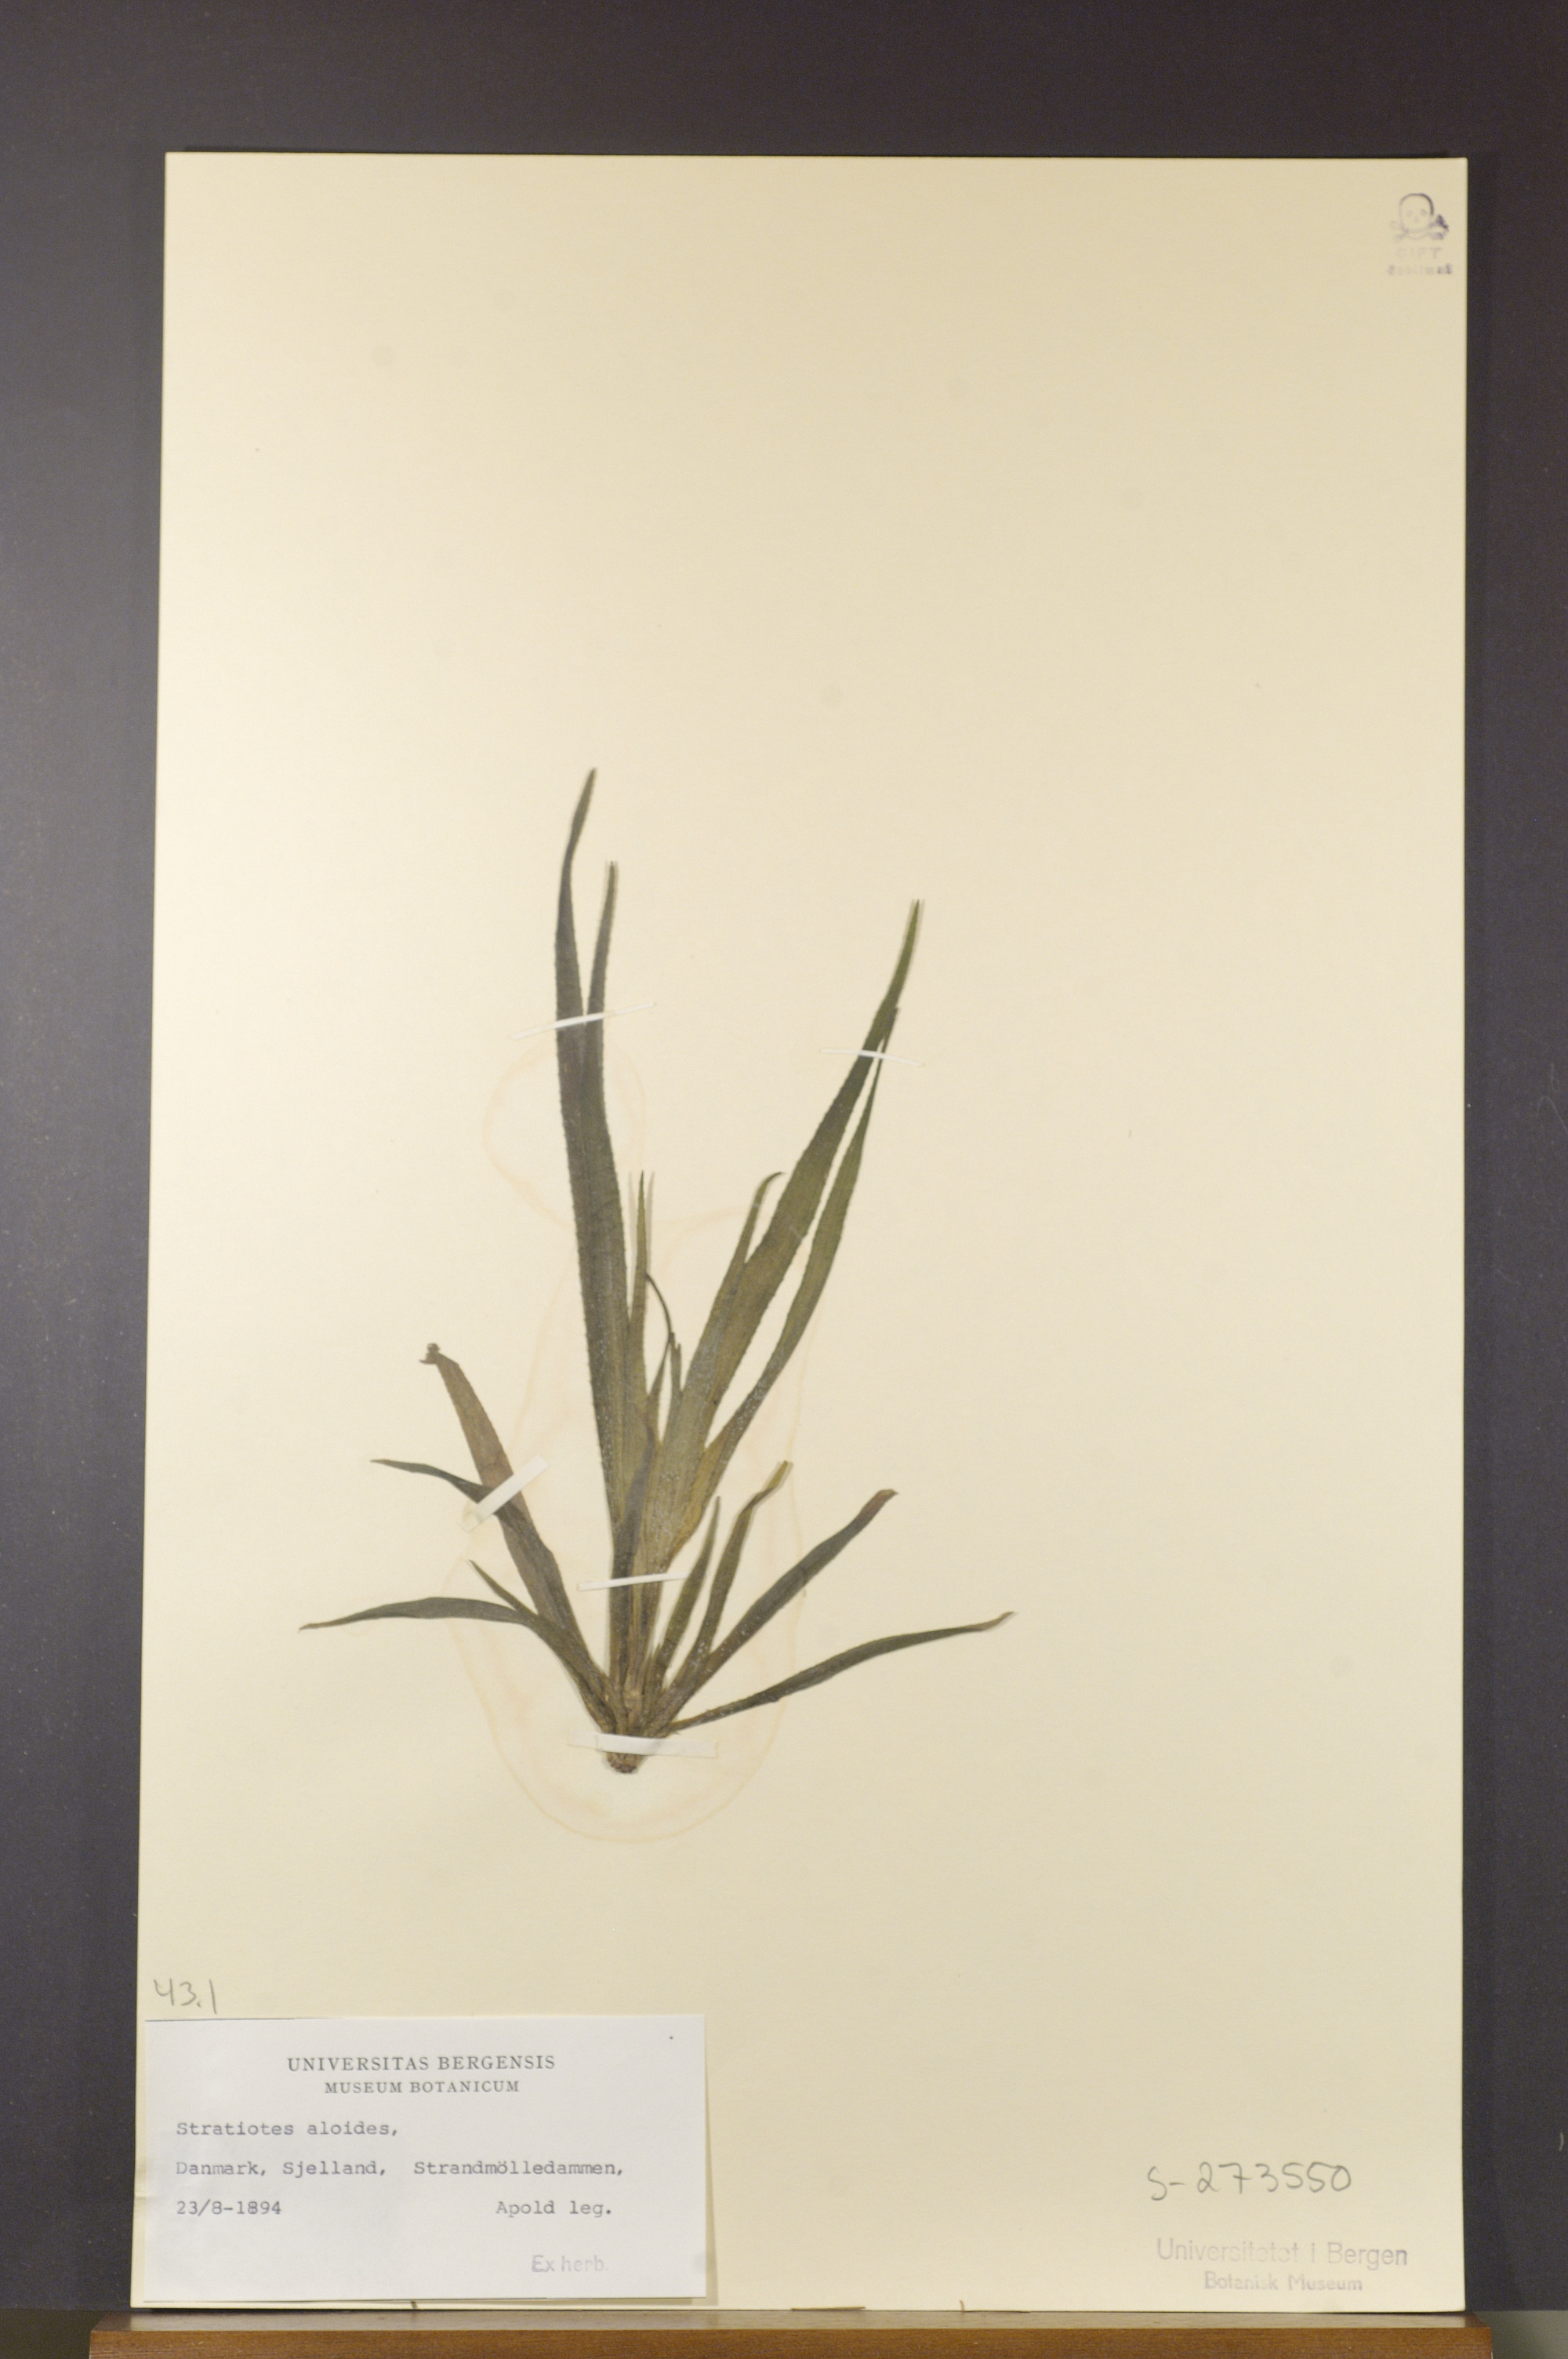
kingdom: Plantae
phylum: Tracheophyta
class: Liliopsida
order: Alismatales
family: Hydrocharitaceae
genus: Stratiotes
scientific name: Stratiotes aloides
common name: Water-soldier
